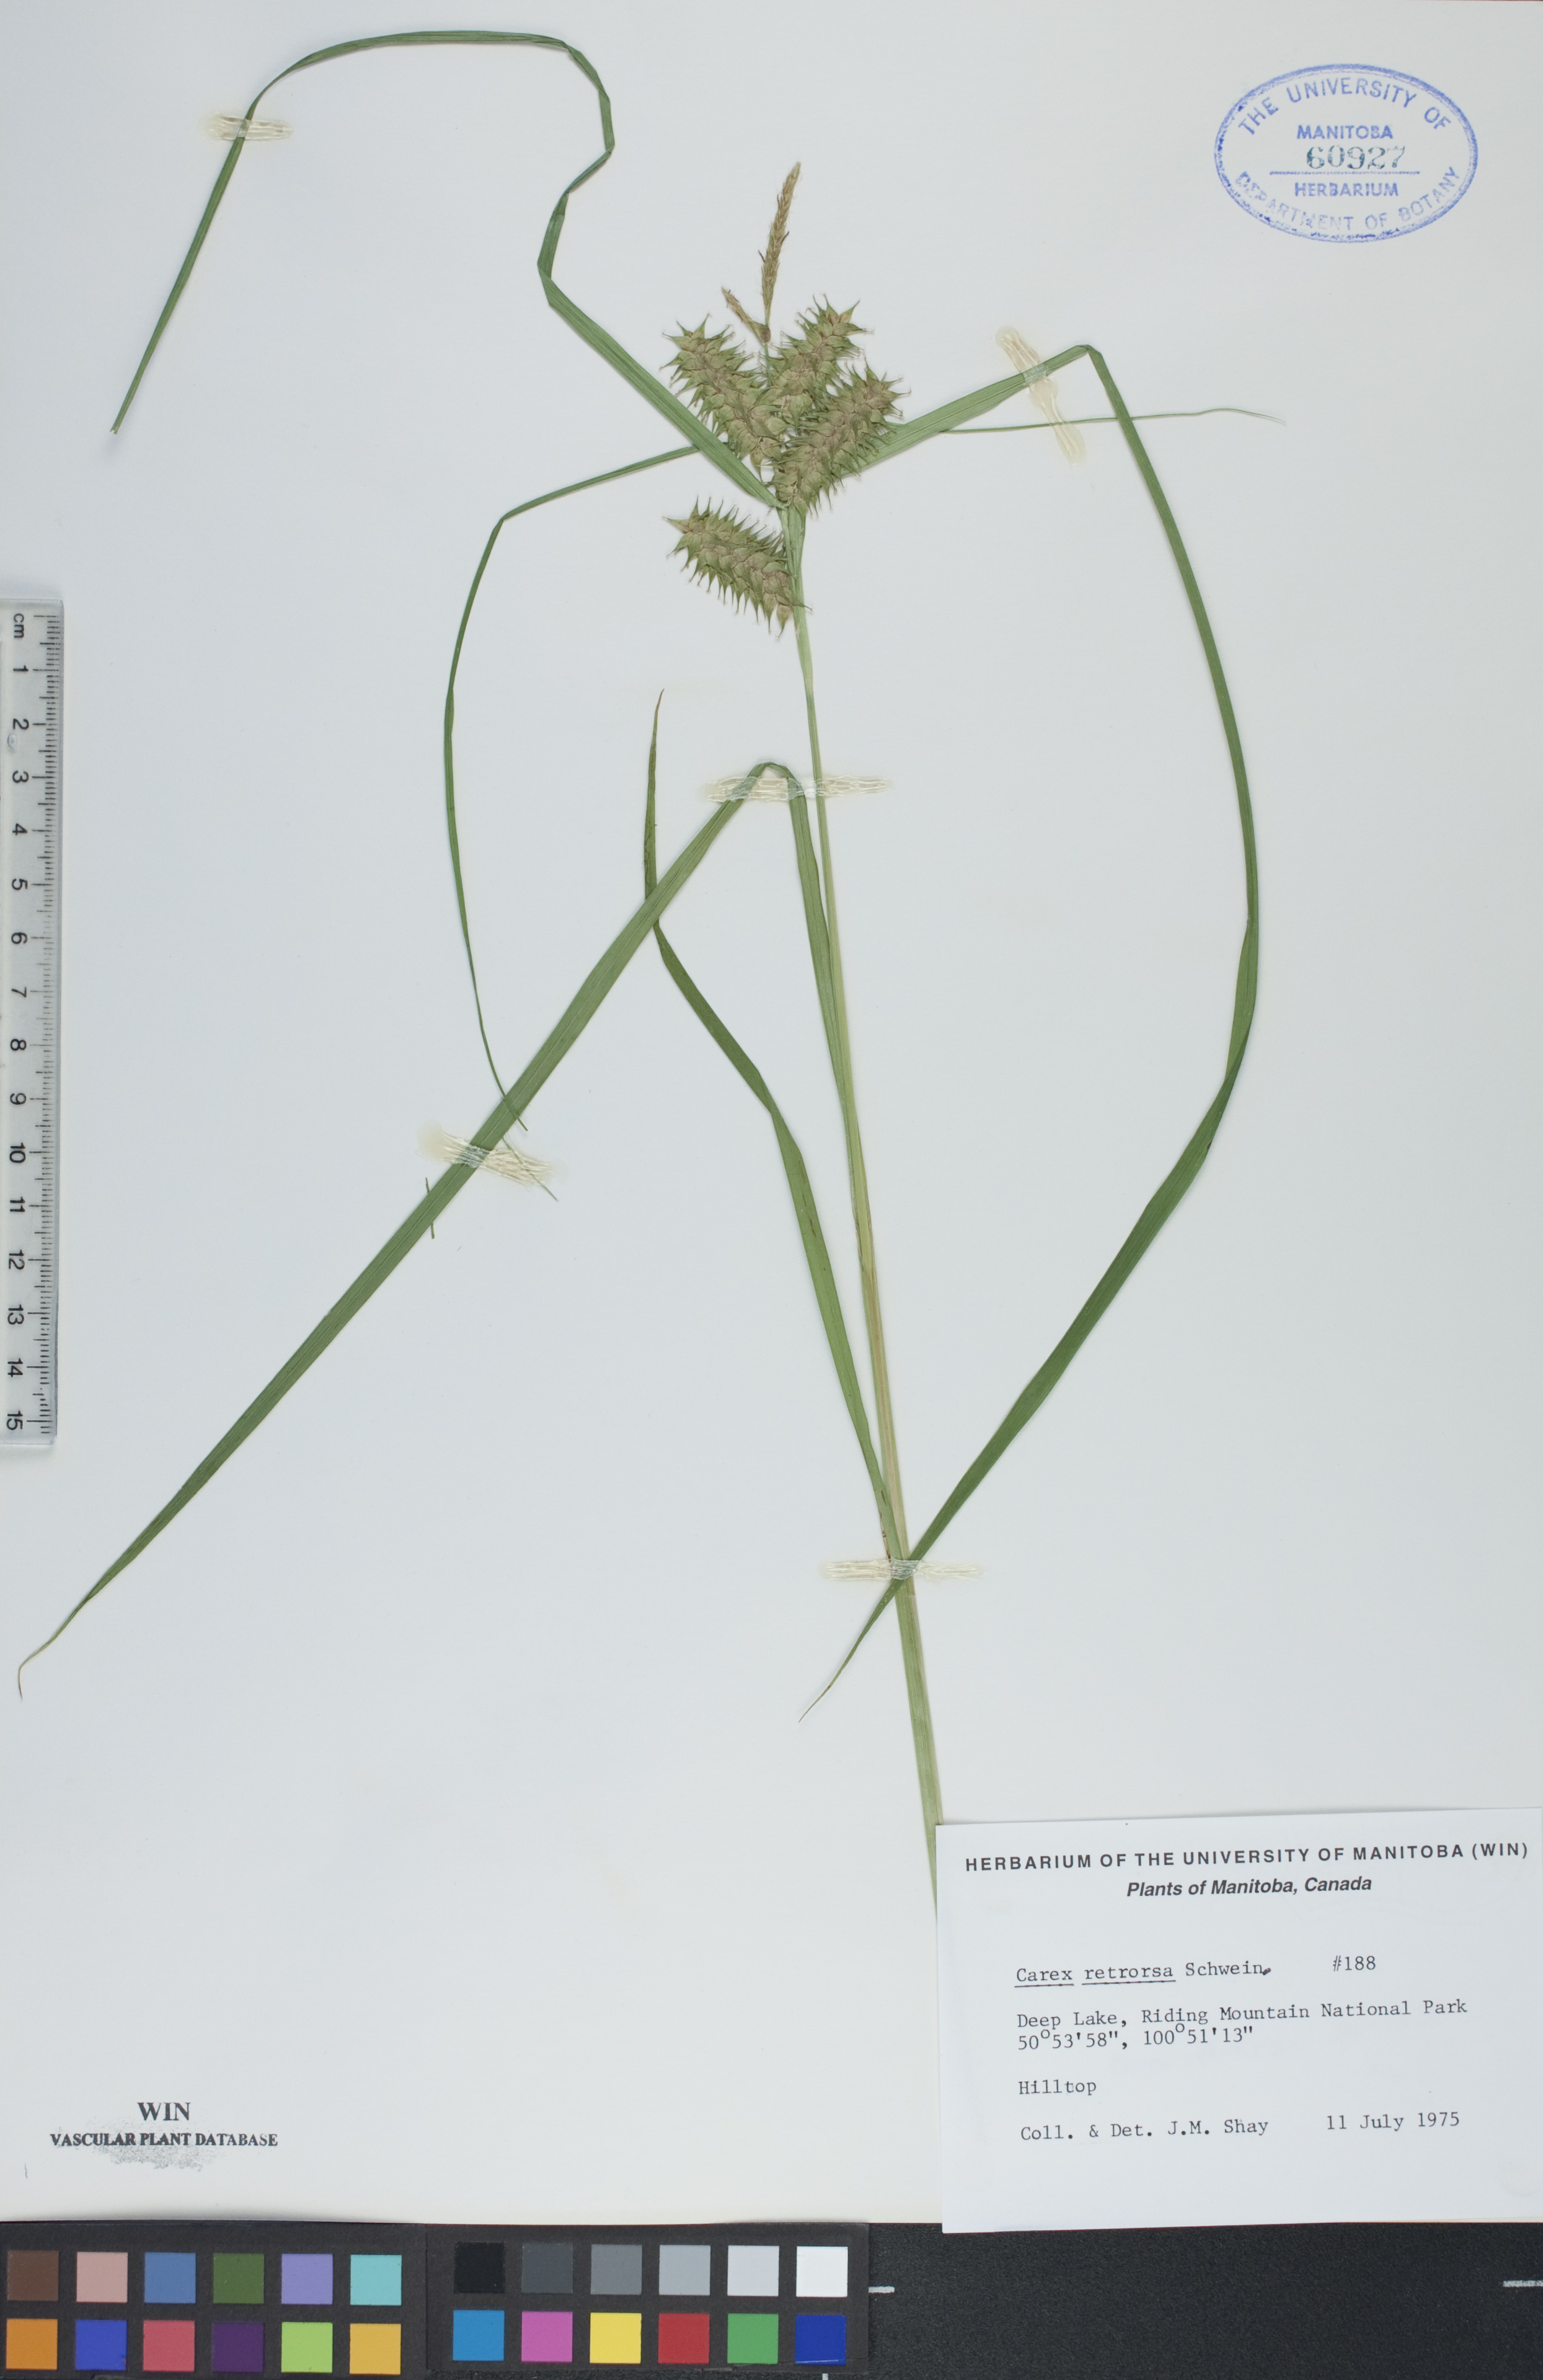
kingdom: Plantae
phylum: Tracheophyta
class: Liliopsida
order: Poales
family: Cyperaceae
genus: Carex
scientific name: Carex retrorsa
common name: Knot-sheath sedge
